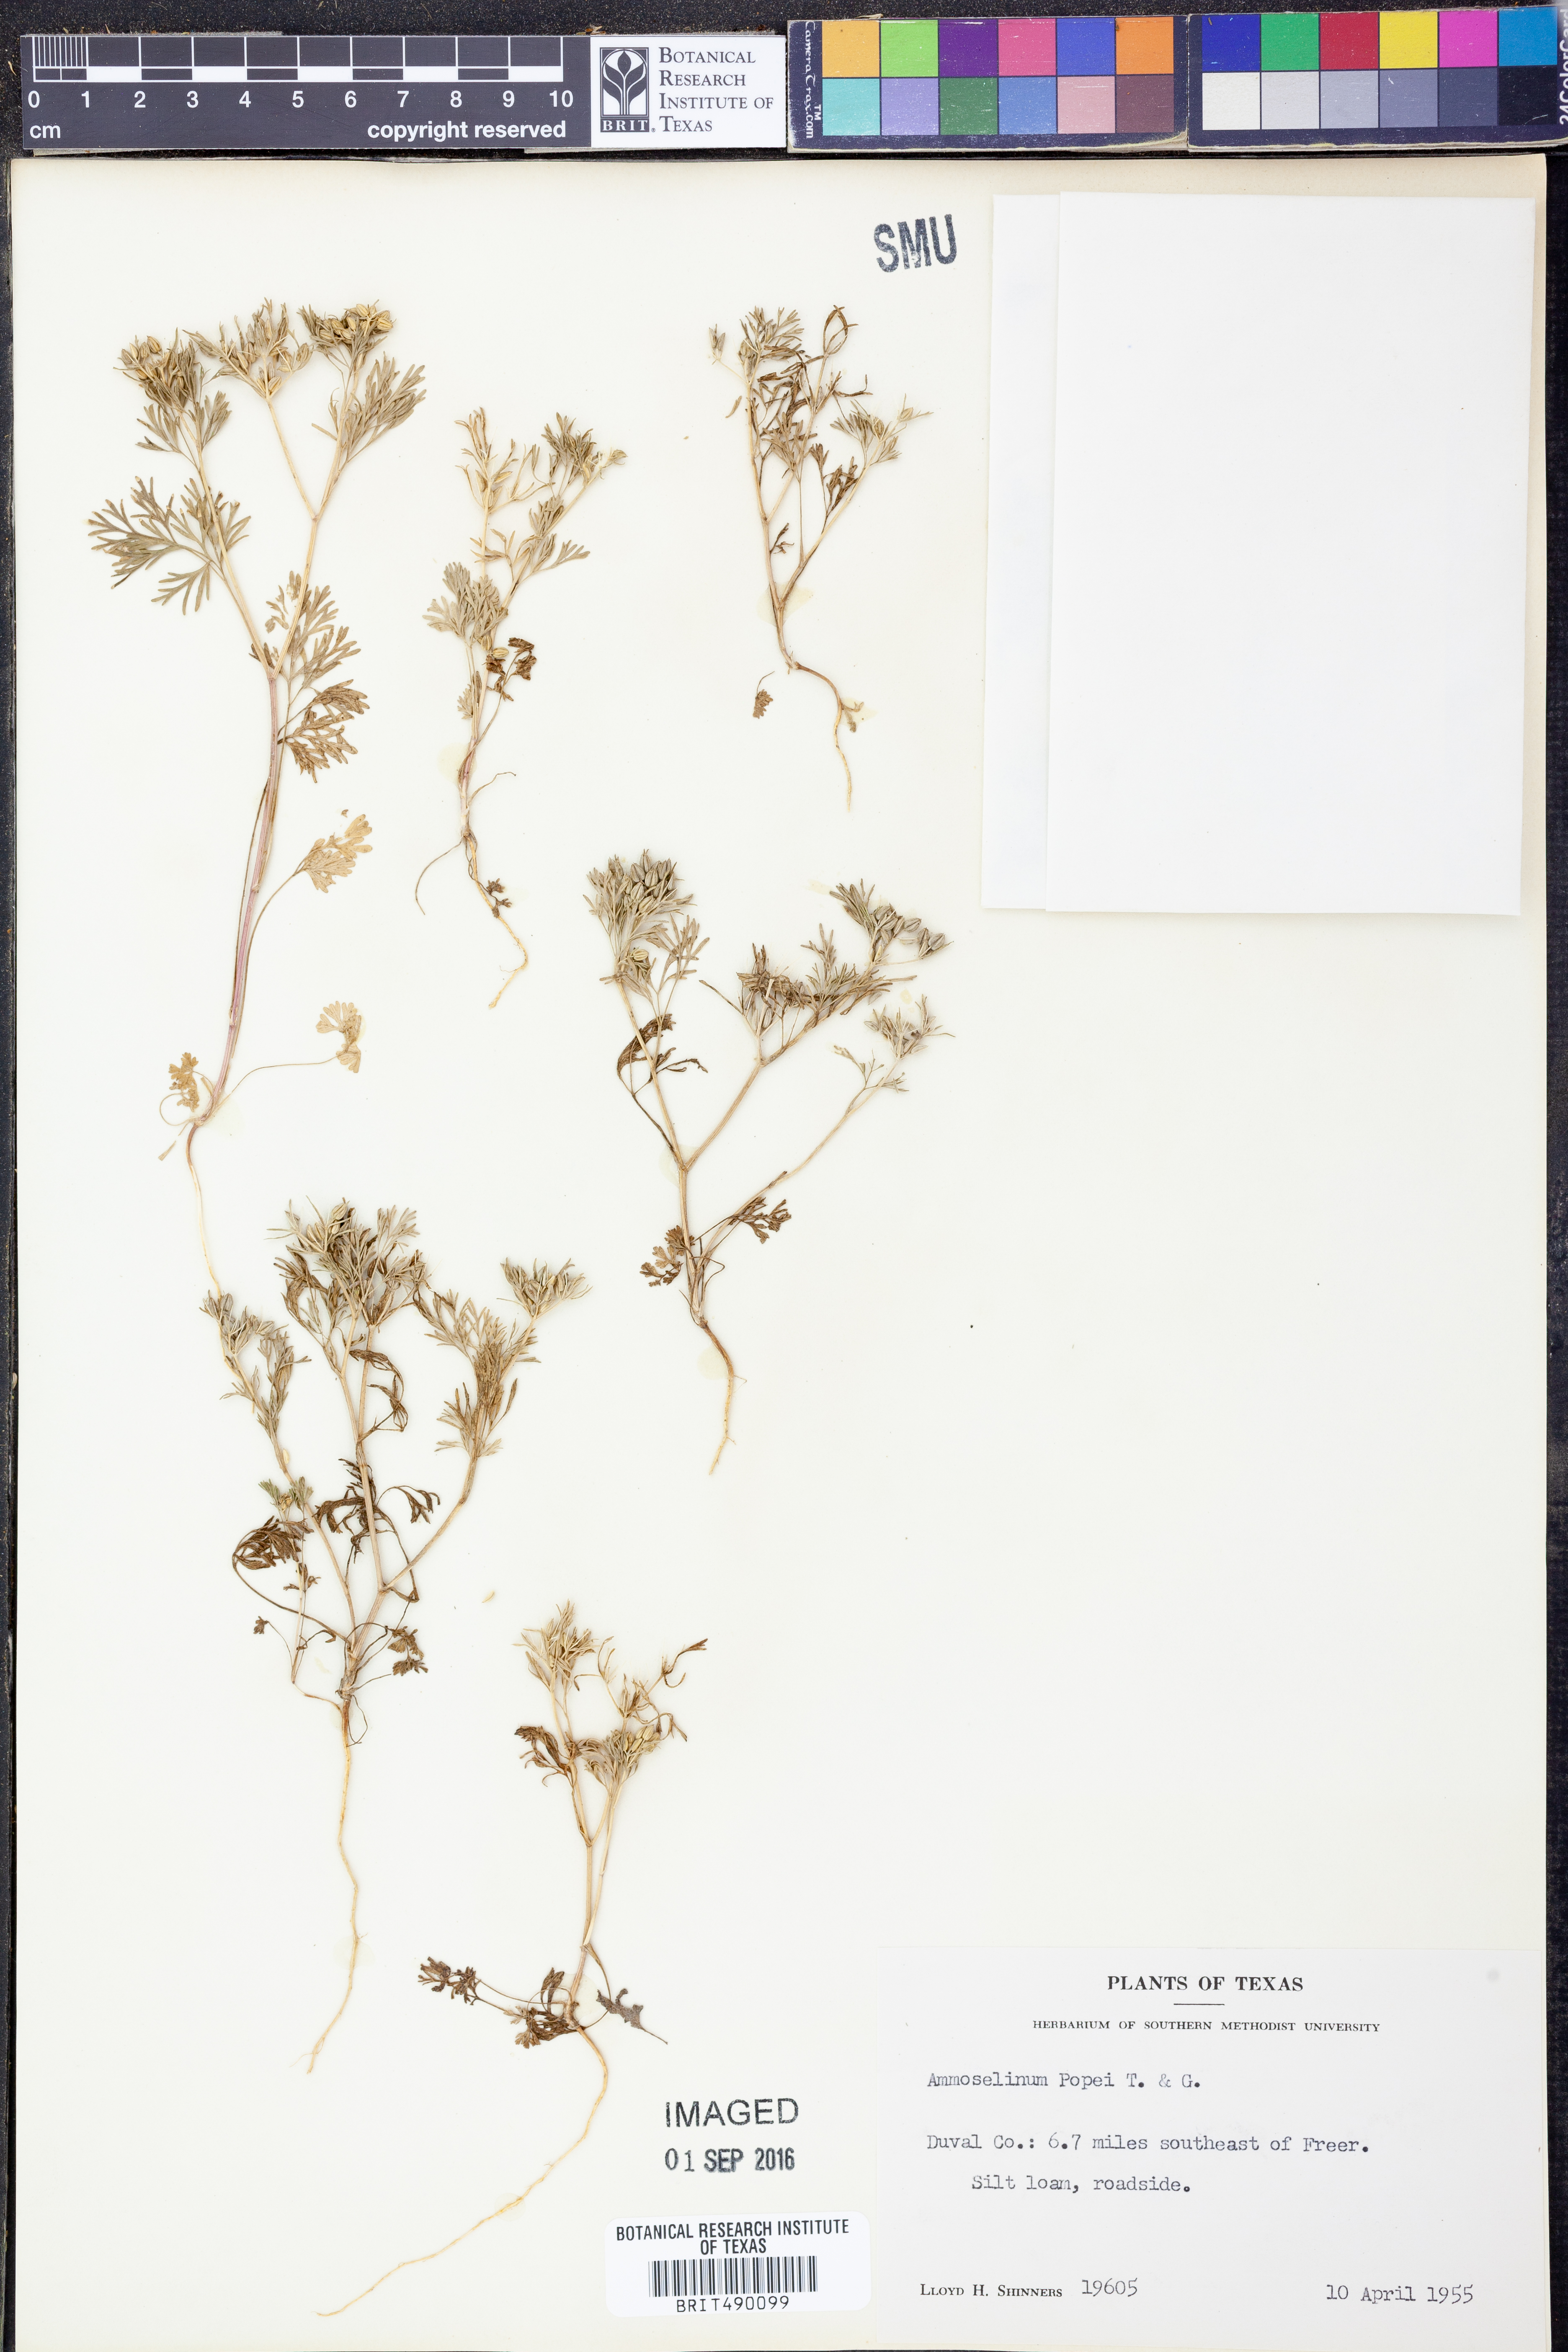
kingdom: Plantae
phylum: Tracheophyta
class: Magnoliopsida
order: Apiales
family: Apiaceae
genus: Ammoselinum
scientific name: Ammoselinum popei
